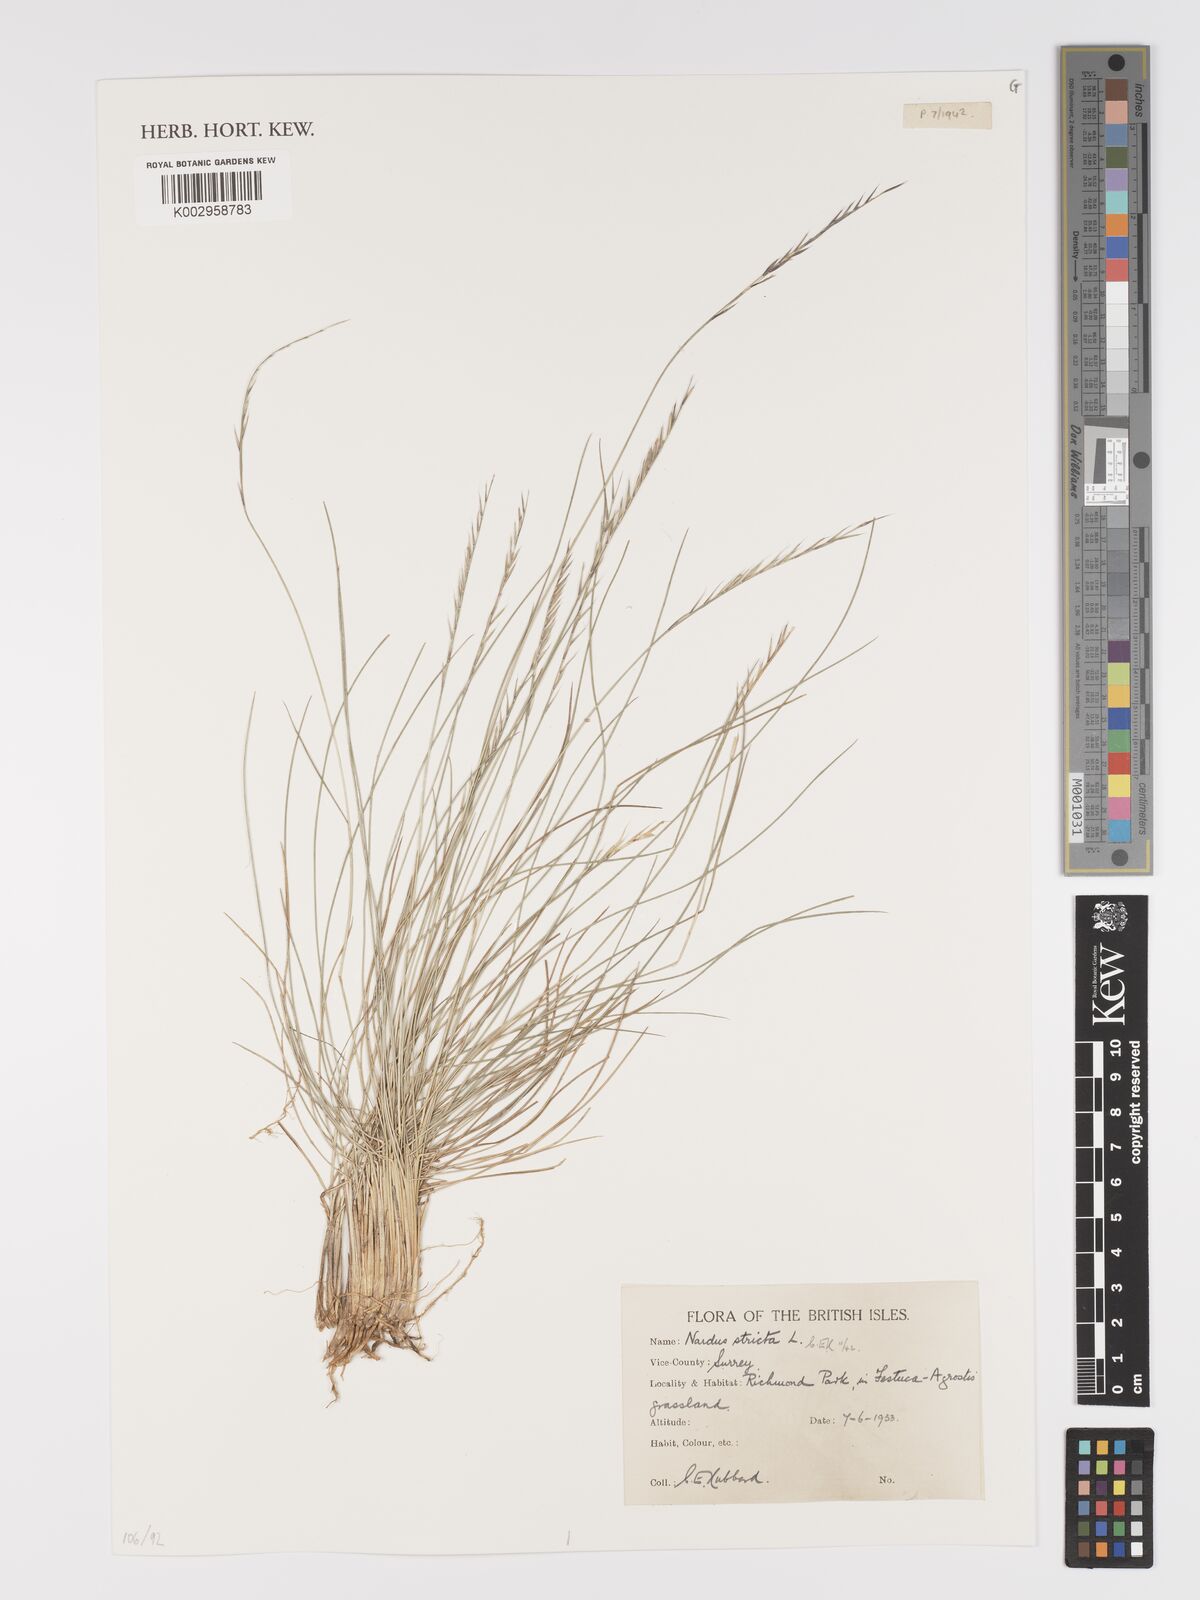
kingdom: Plantae
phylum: Tracheophyta
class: Liliopsida
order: Poales
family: Poaceae
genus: Nardus
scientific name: Nardus stricta
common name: Mat-grass
